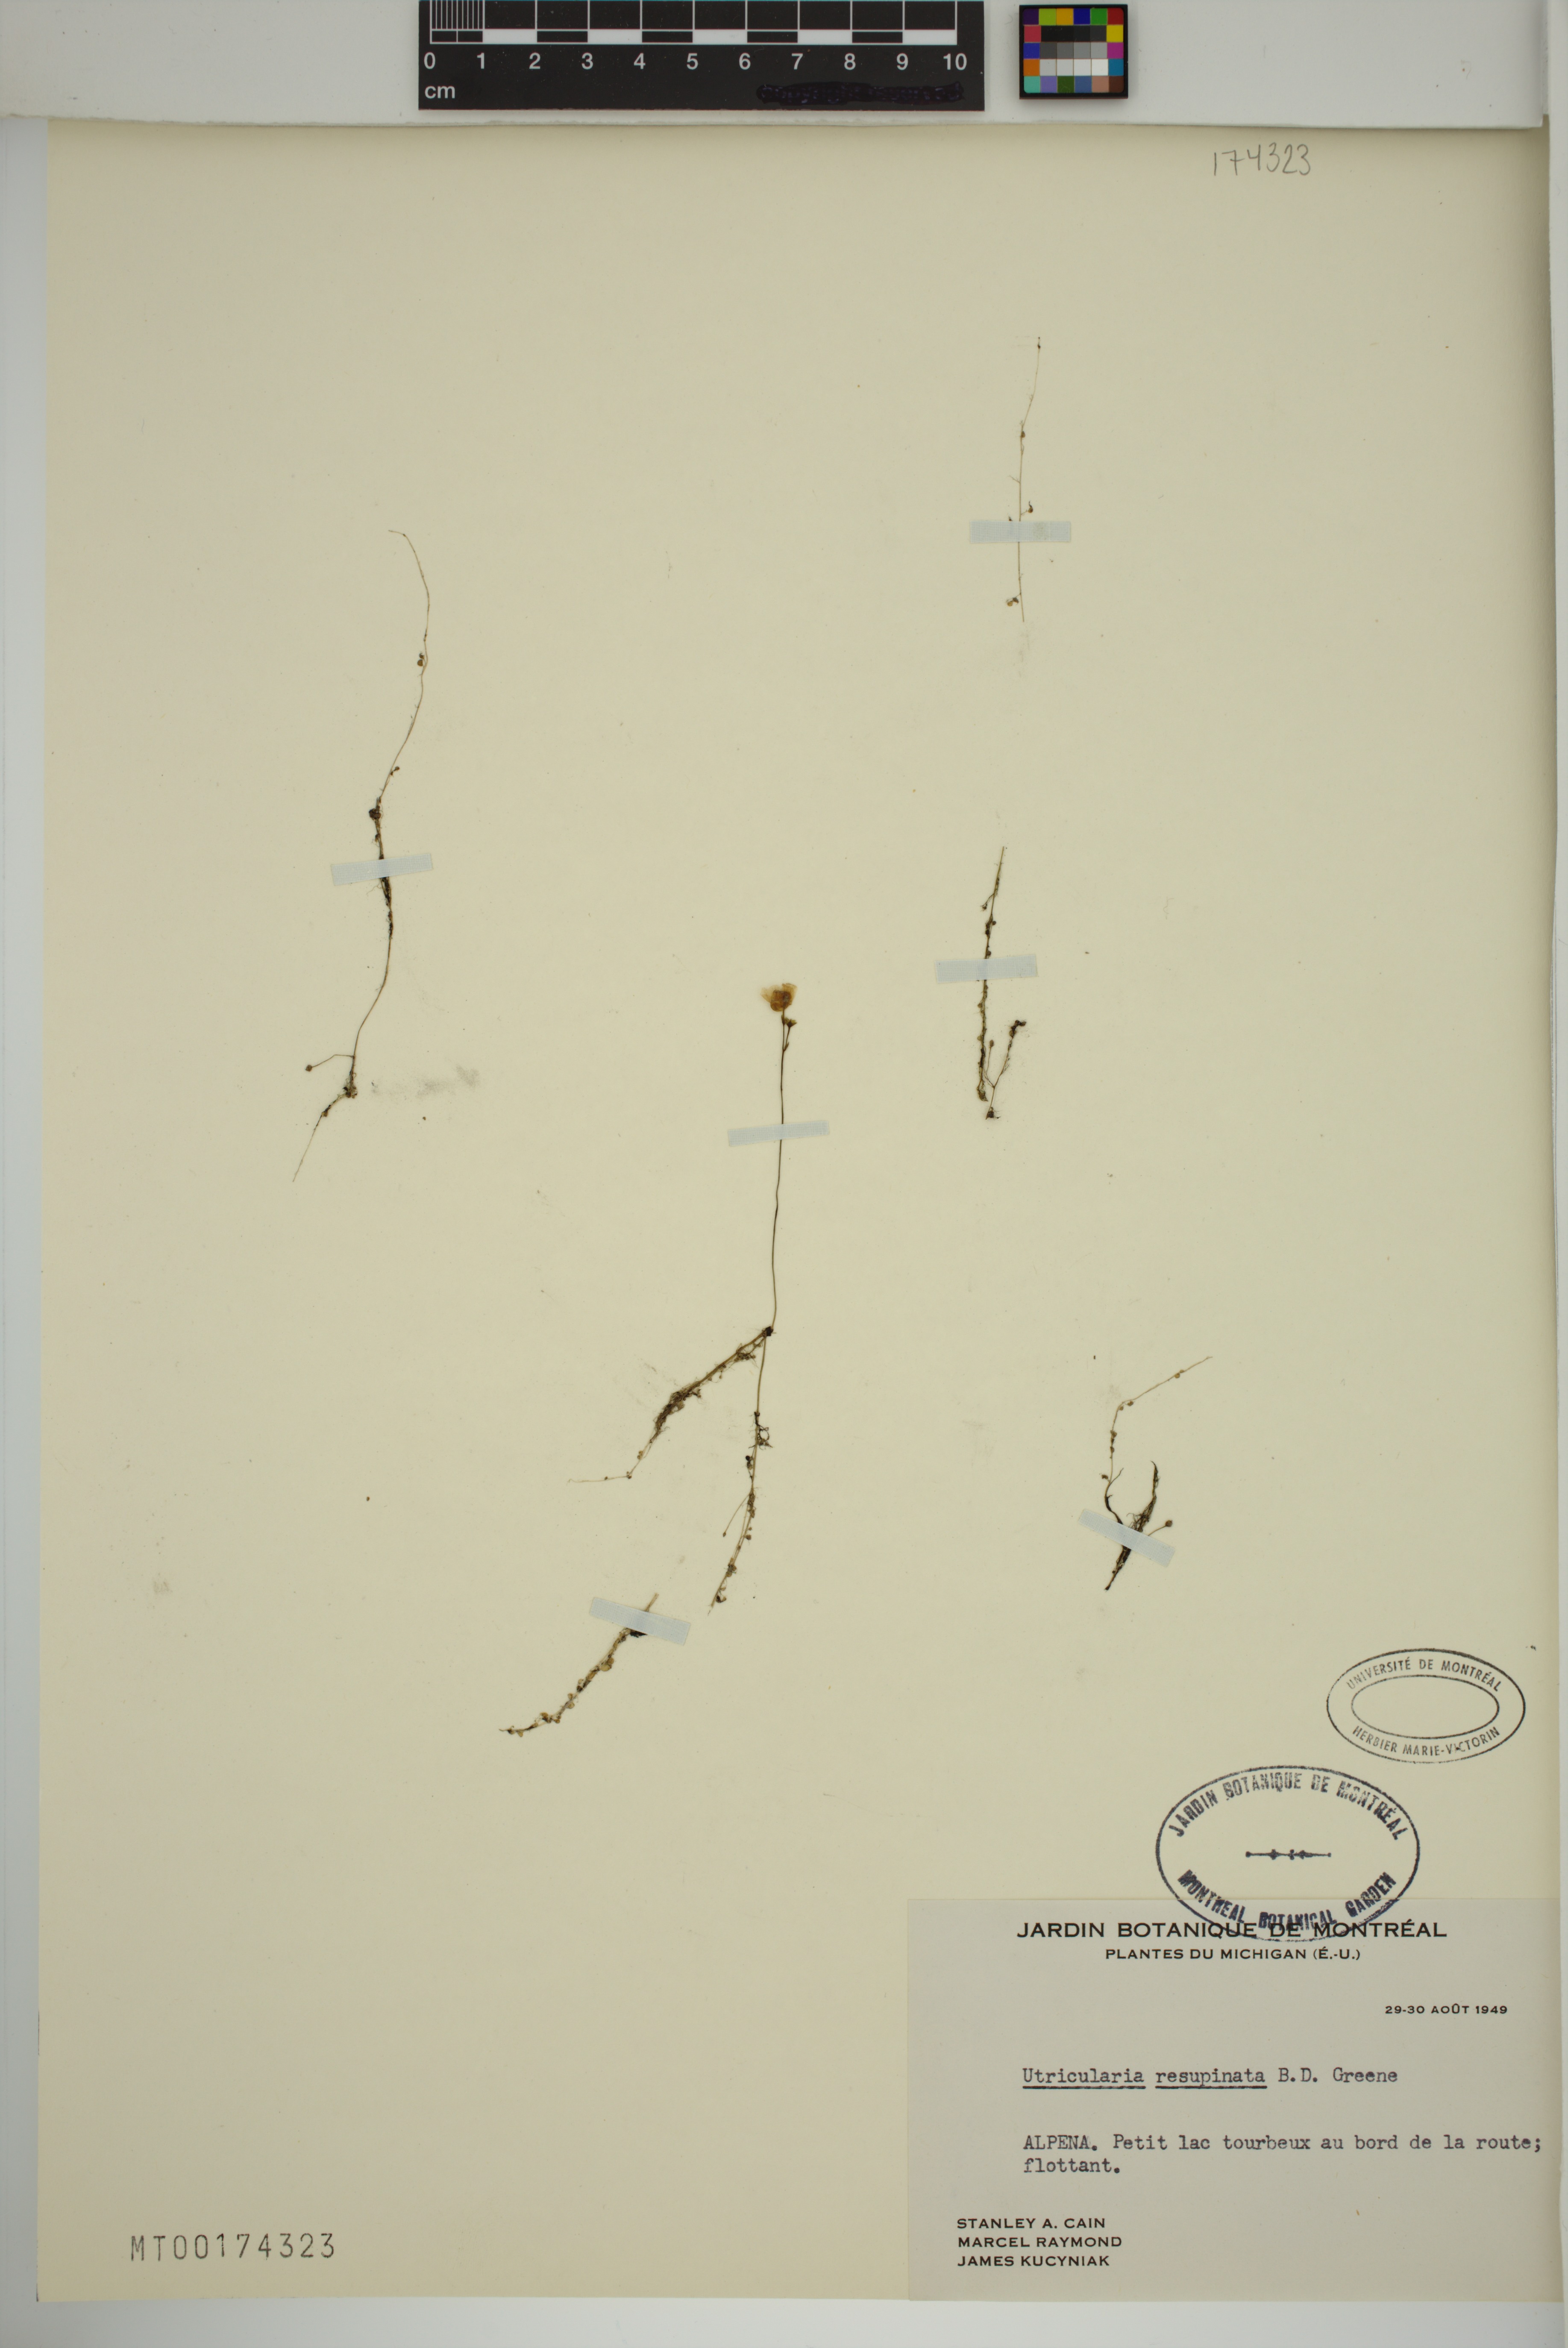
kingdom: Plantae
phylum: Tracheophyta
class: Magnoliopsida
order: Lamiales
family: Lentibulariaceae
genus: Utricularia
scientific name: Utricularia resupinata
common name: Northeastern bladderwort
